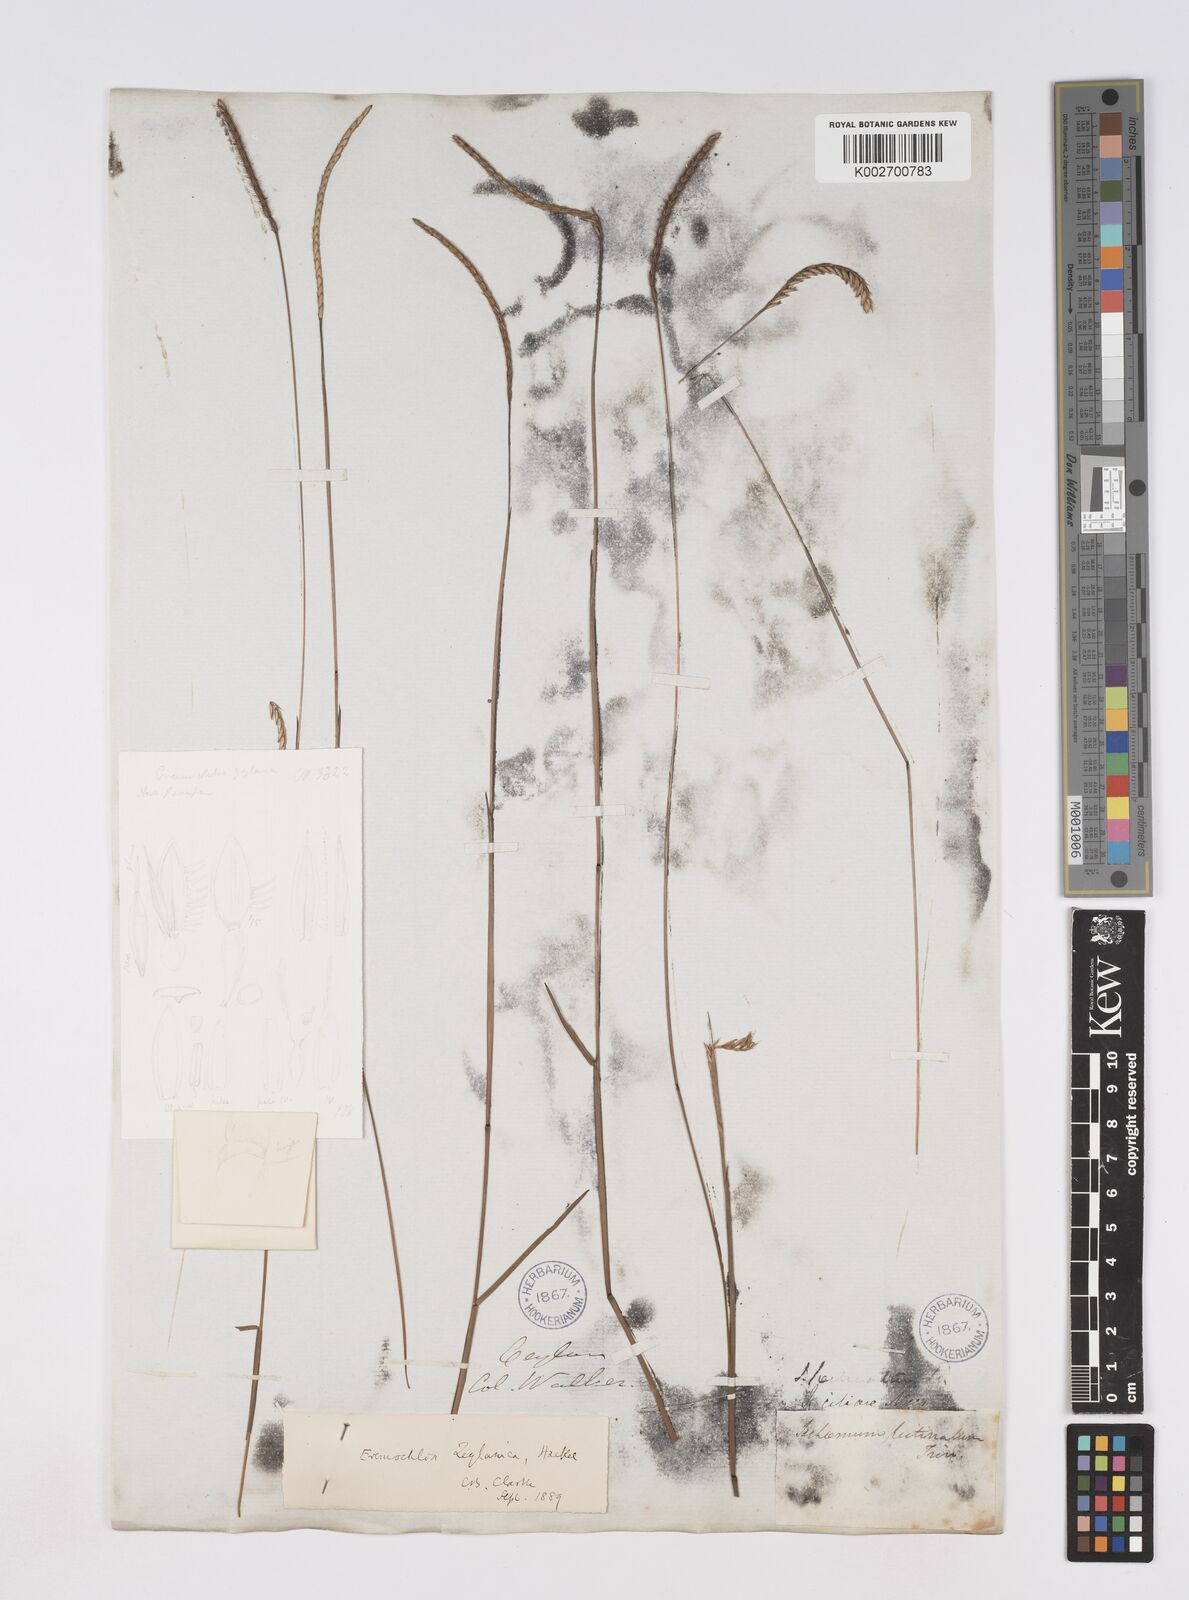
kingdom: Plantae
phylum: Tracheophyta
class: Liliopsida
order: Poales
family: Poaceae
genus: Eremochloa
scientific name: Eremochloa zeylanica
